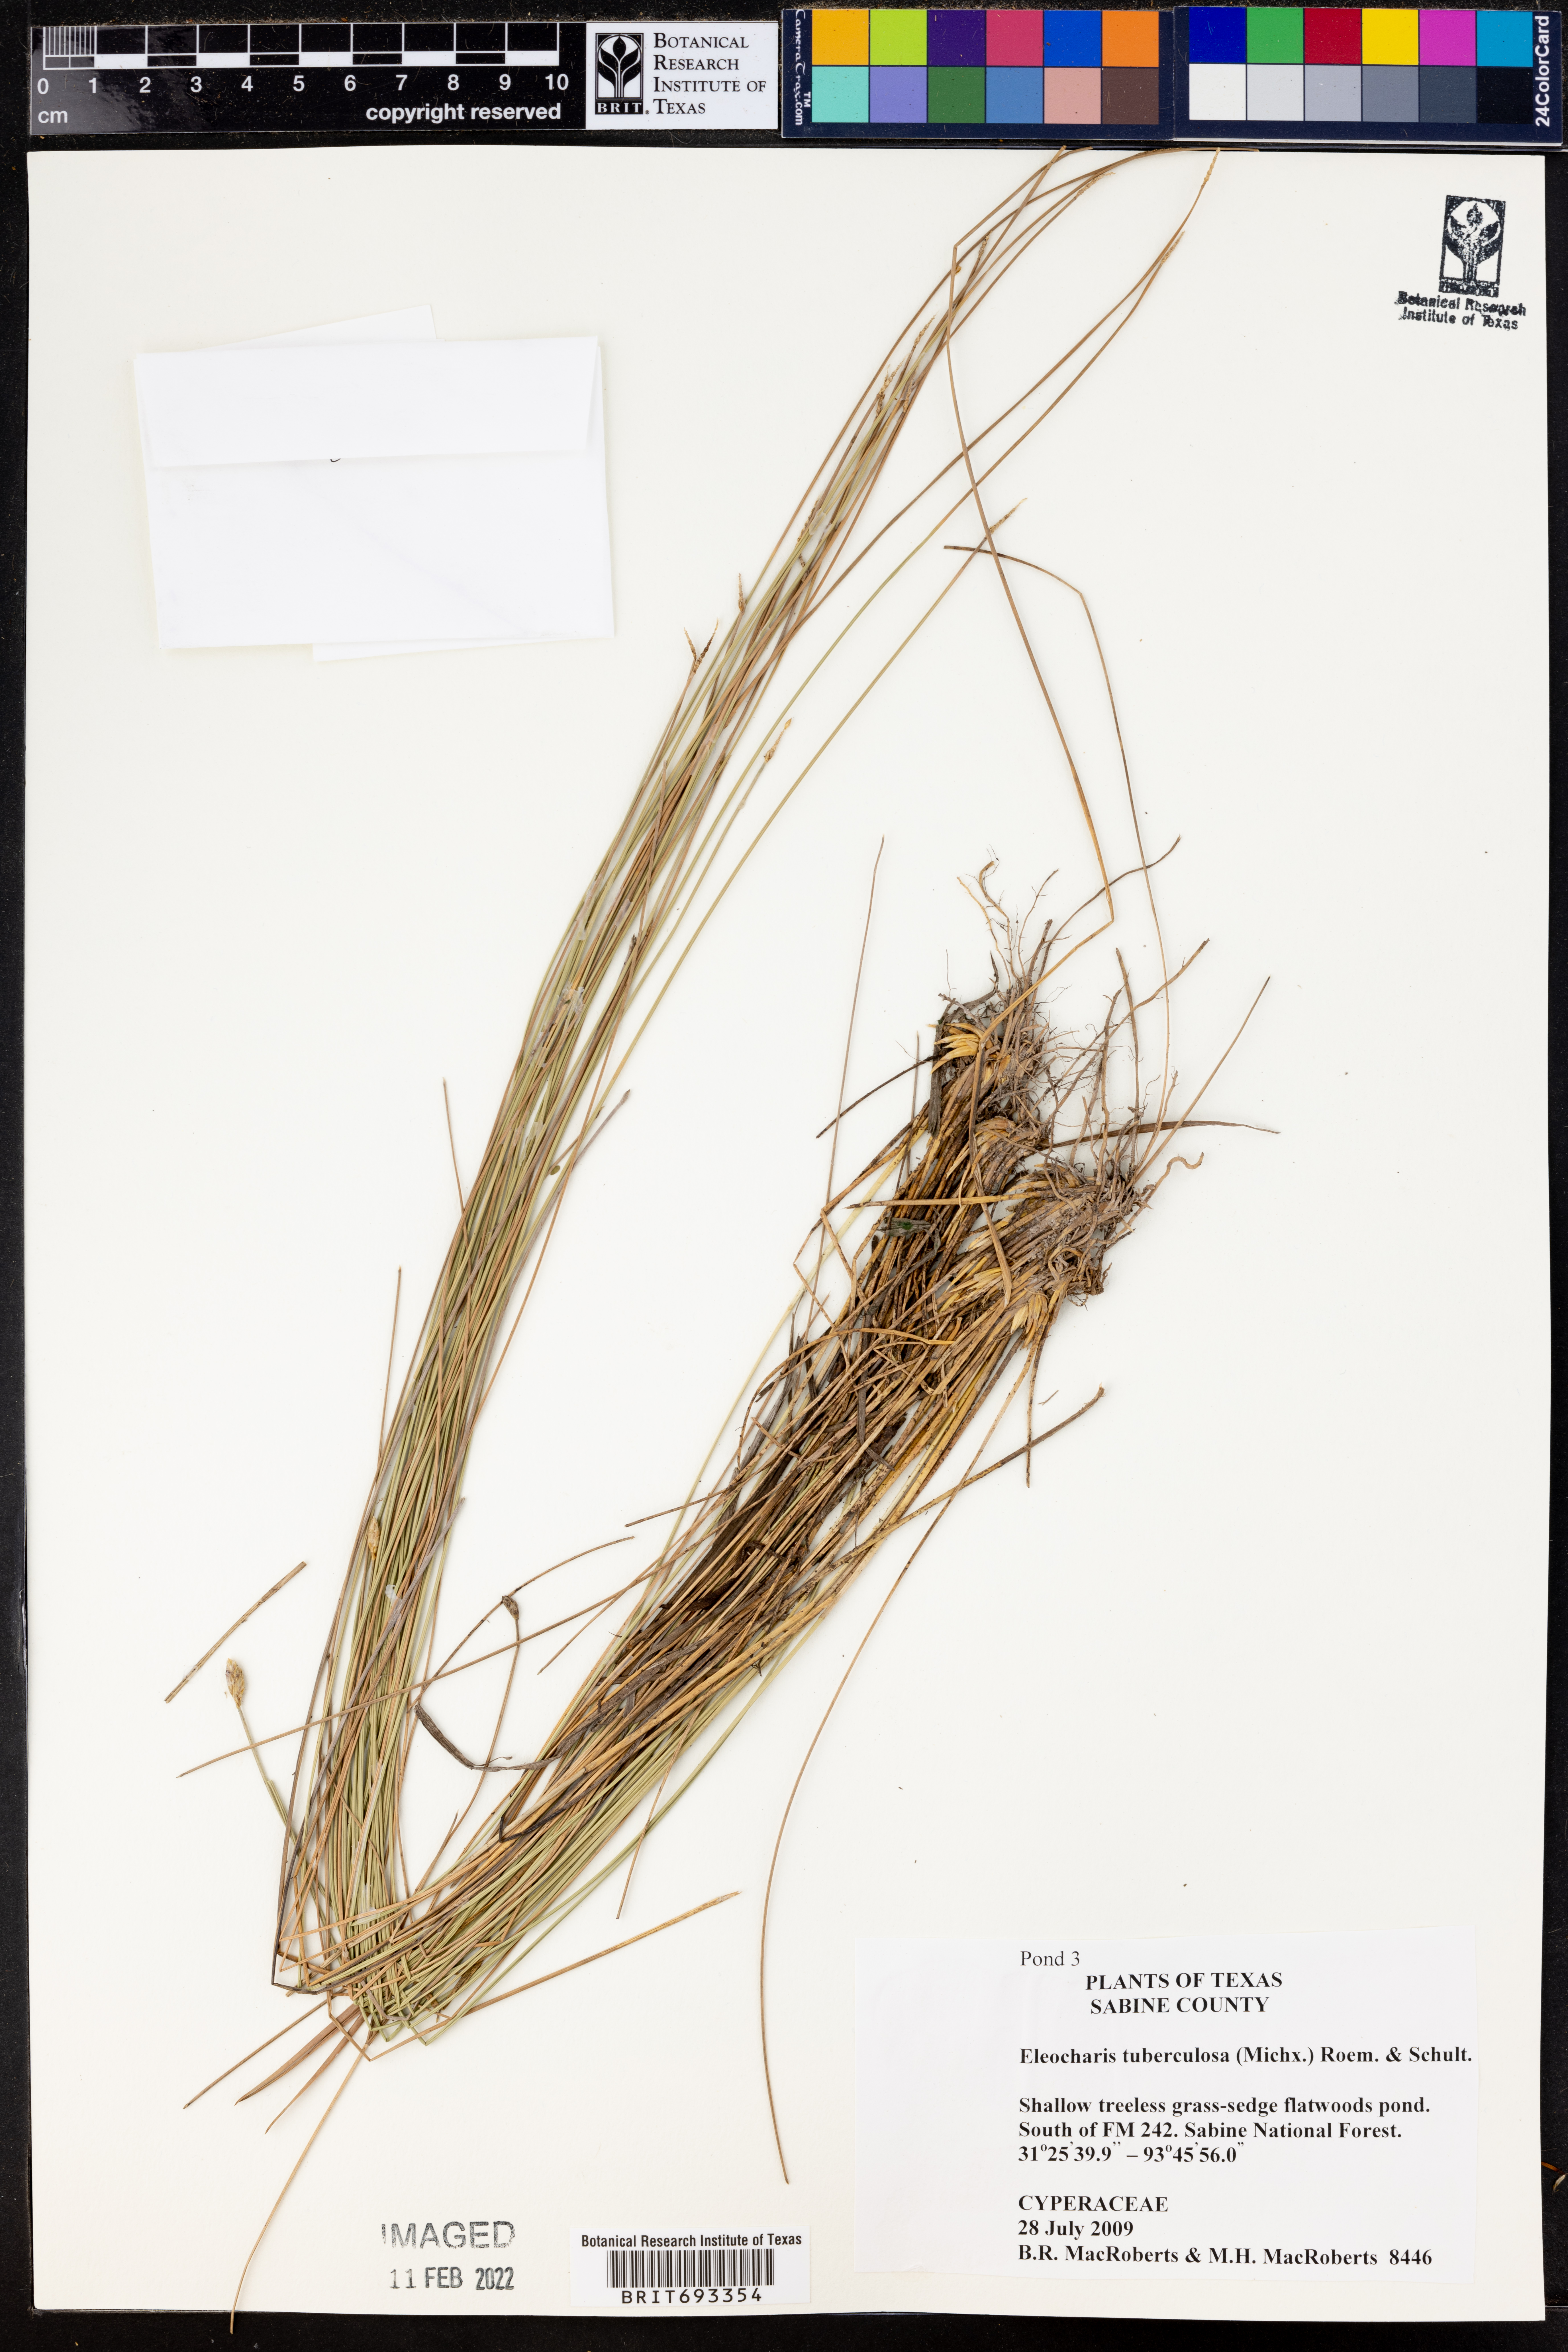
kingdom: Plantae
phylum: Tracheophyta
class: Liliopsida
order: Poales
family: Cyperaceae
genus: Eleocharis
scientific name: Eleocharis tuberculosa
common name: Cone-cup spikerush
